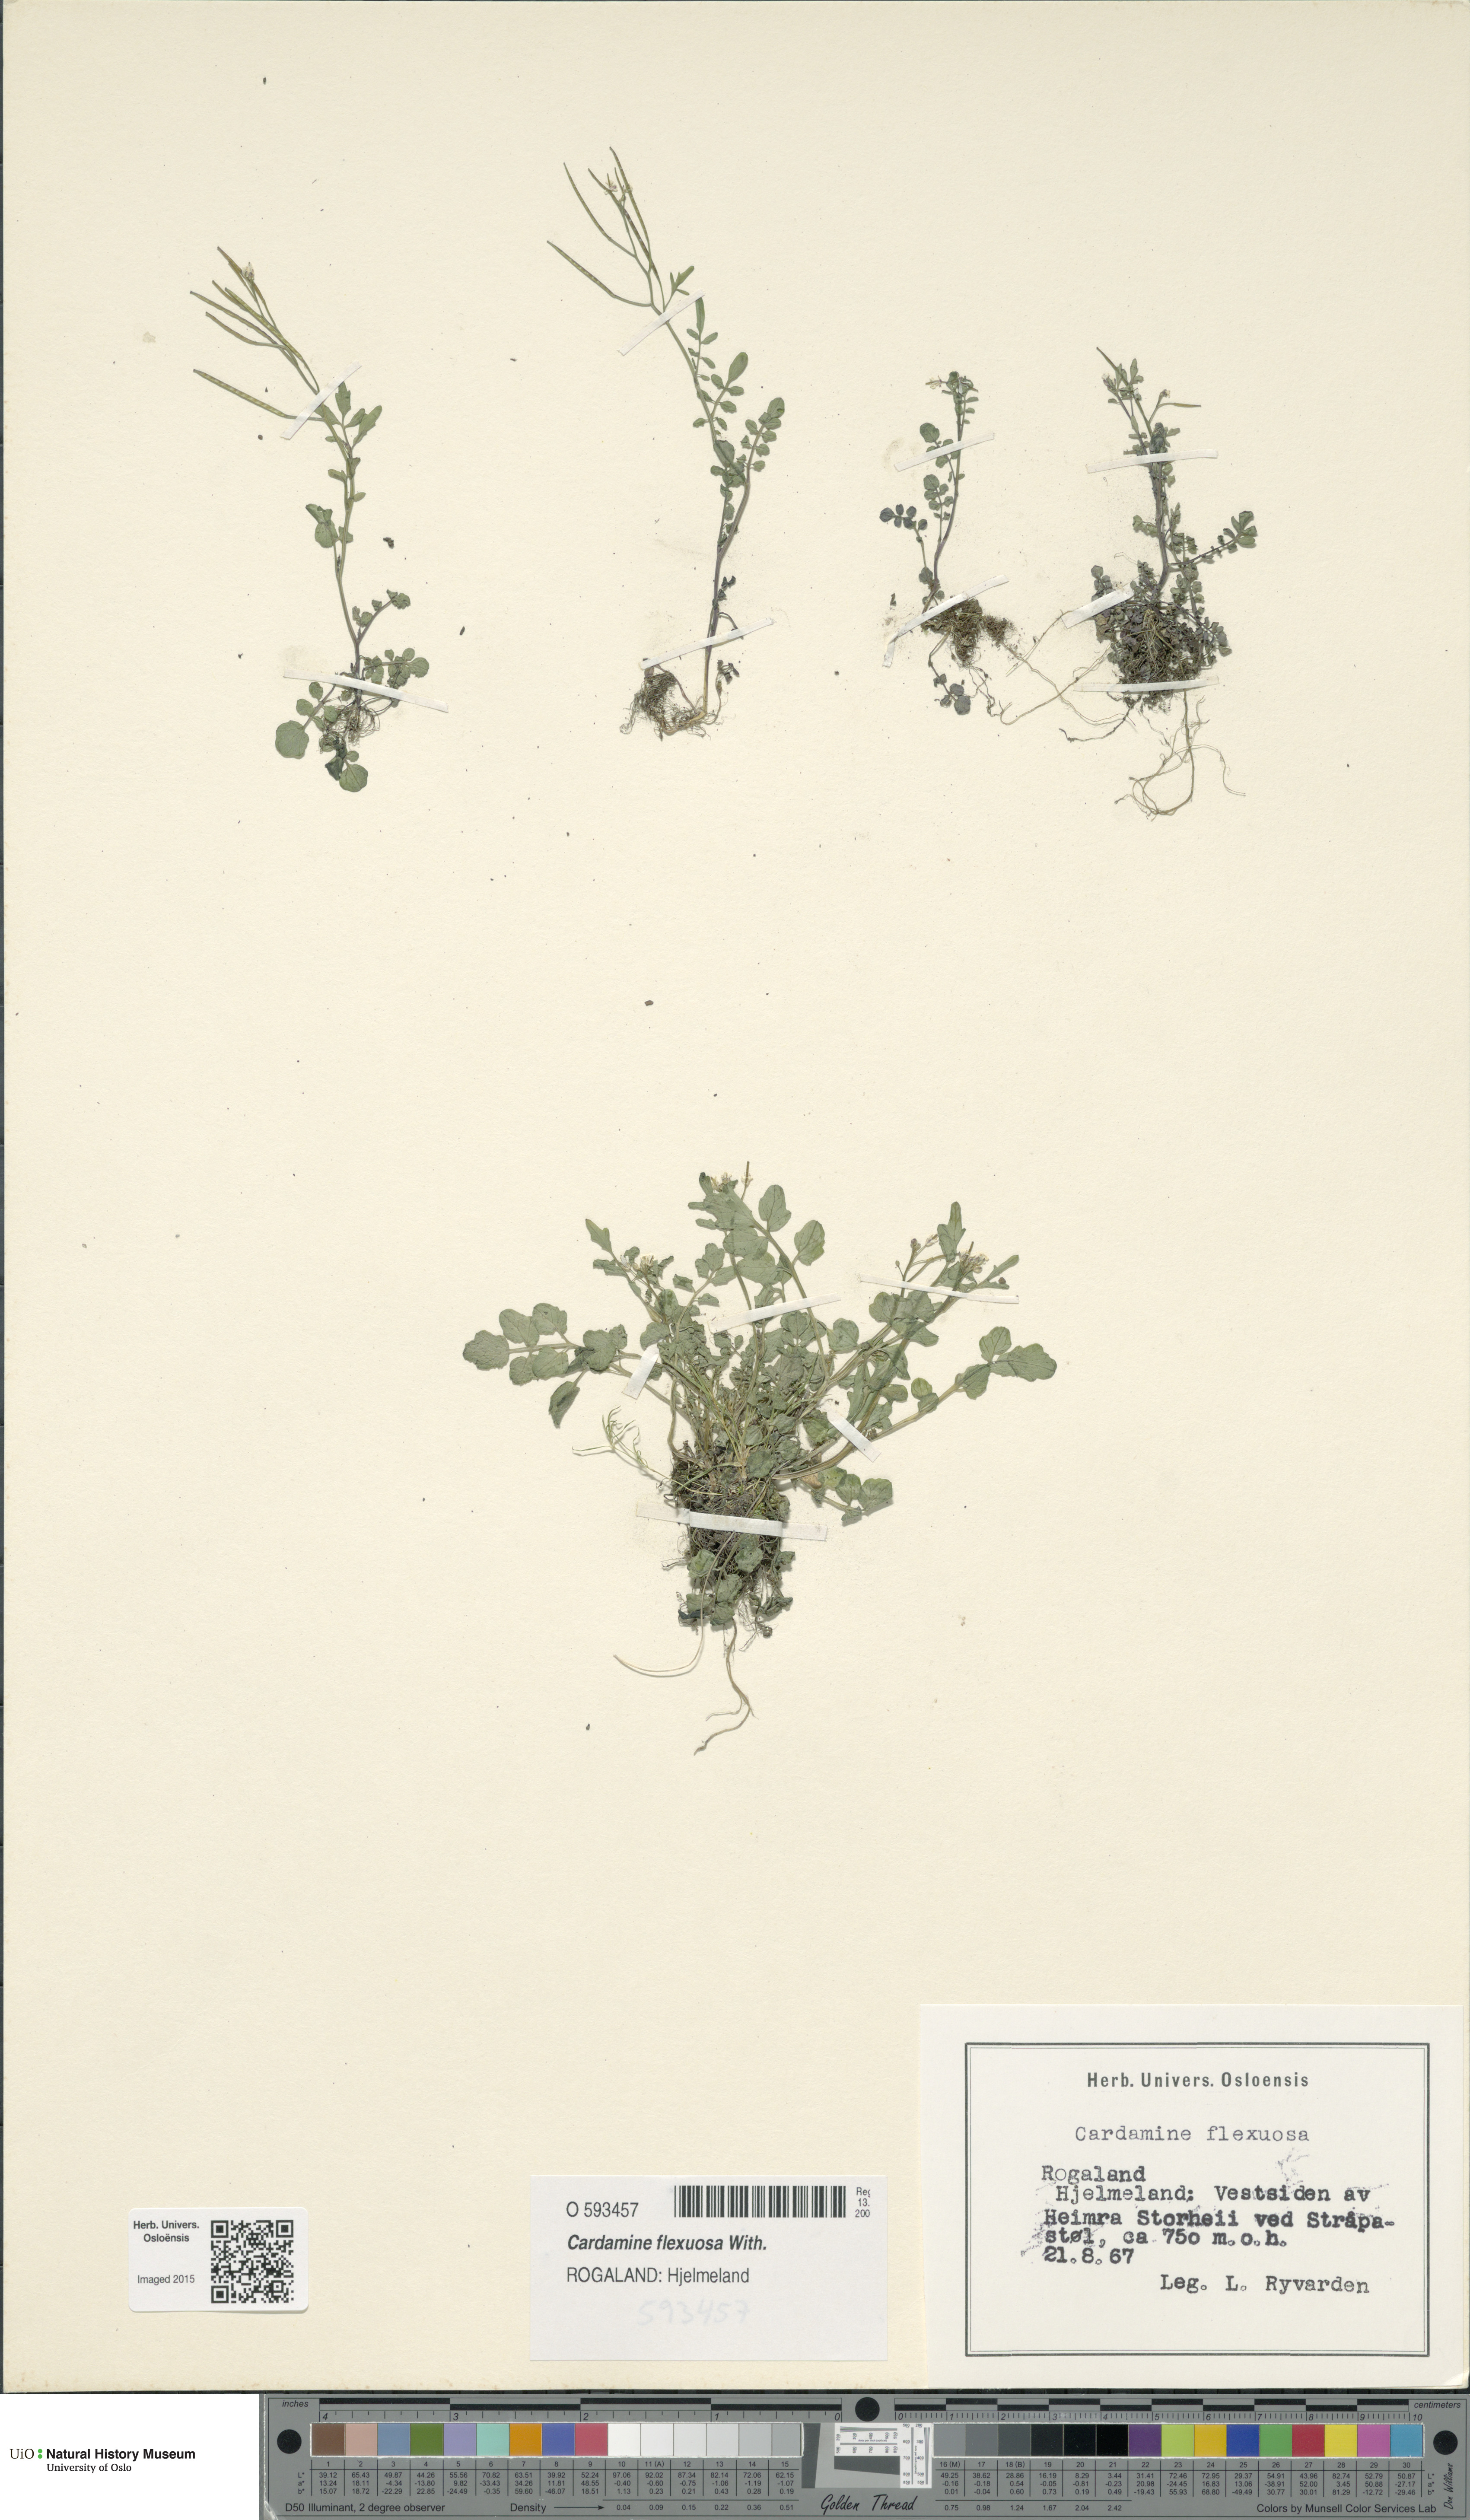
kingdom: Plantae
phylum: Tracheophyta
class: Magnoliopsida
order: Brassicales
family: Brassicaceae
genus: Cardamine
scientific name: Cardamine flexuosa
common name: Woodland bittercress
